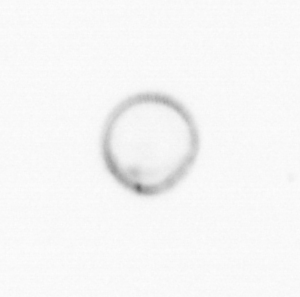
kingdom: Chromista
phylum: Ochrophyta
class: Bacillariophyceae
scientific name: Bacillariophyceae
